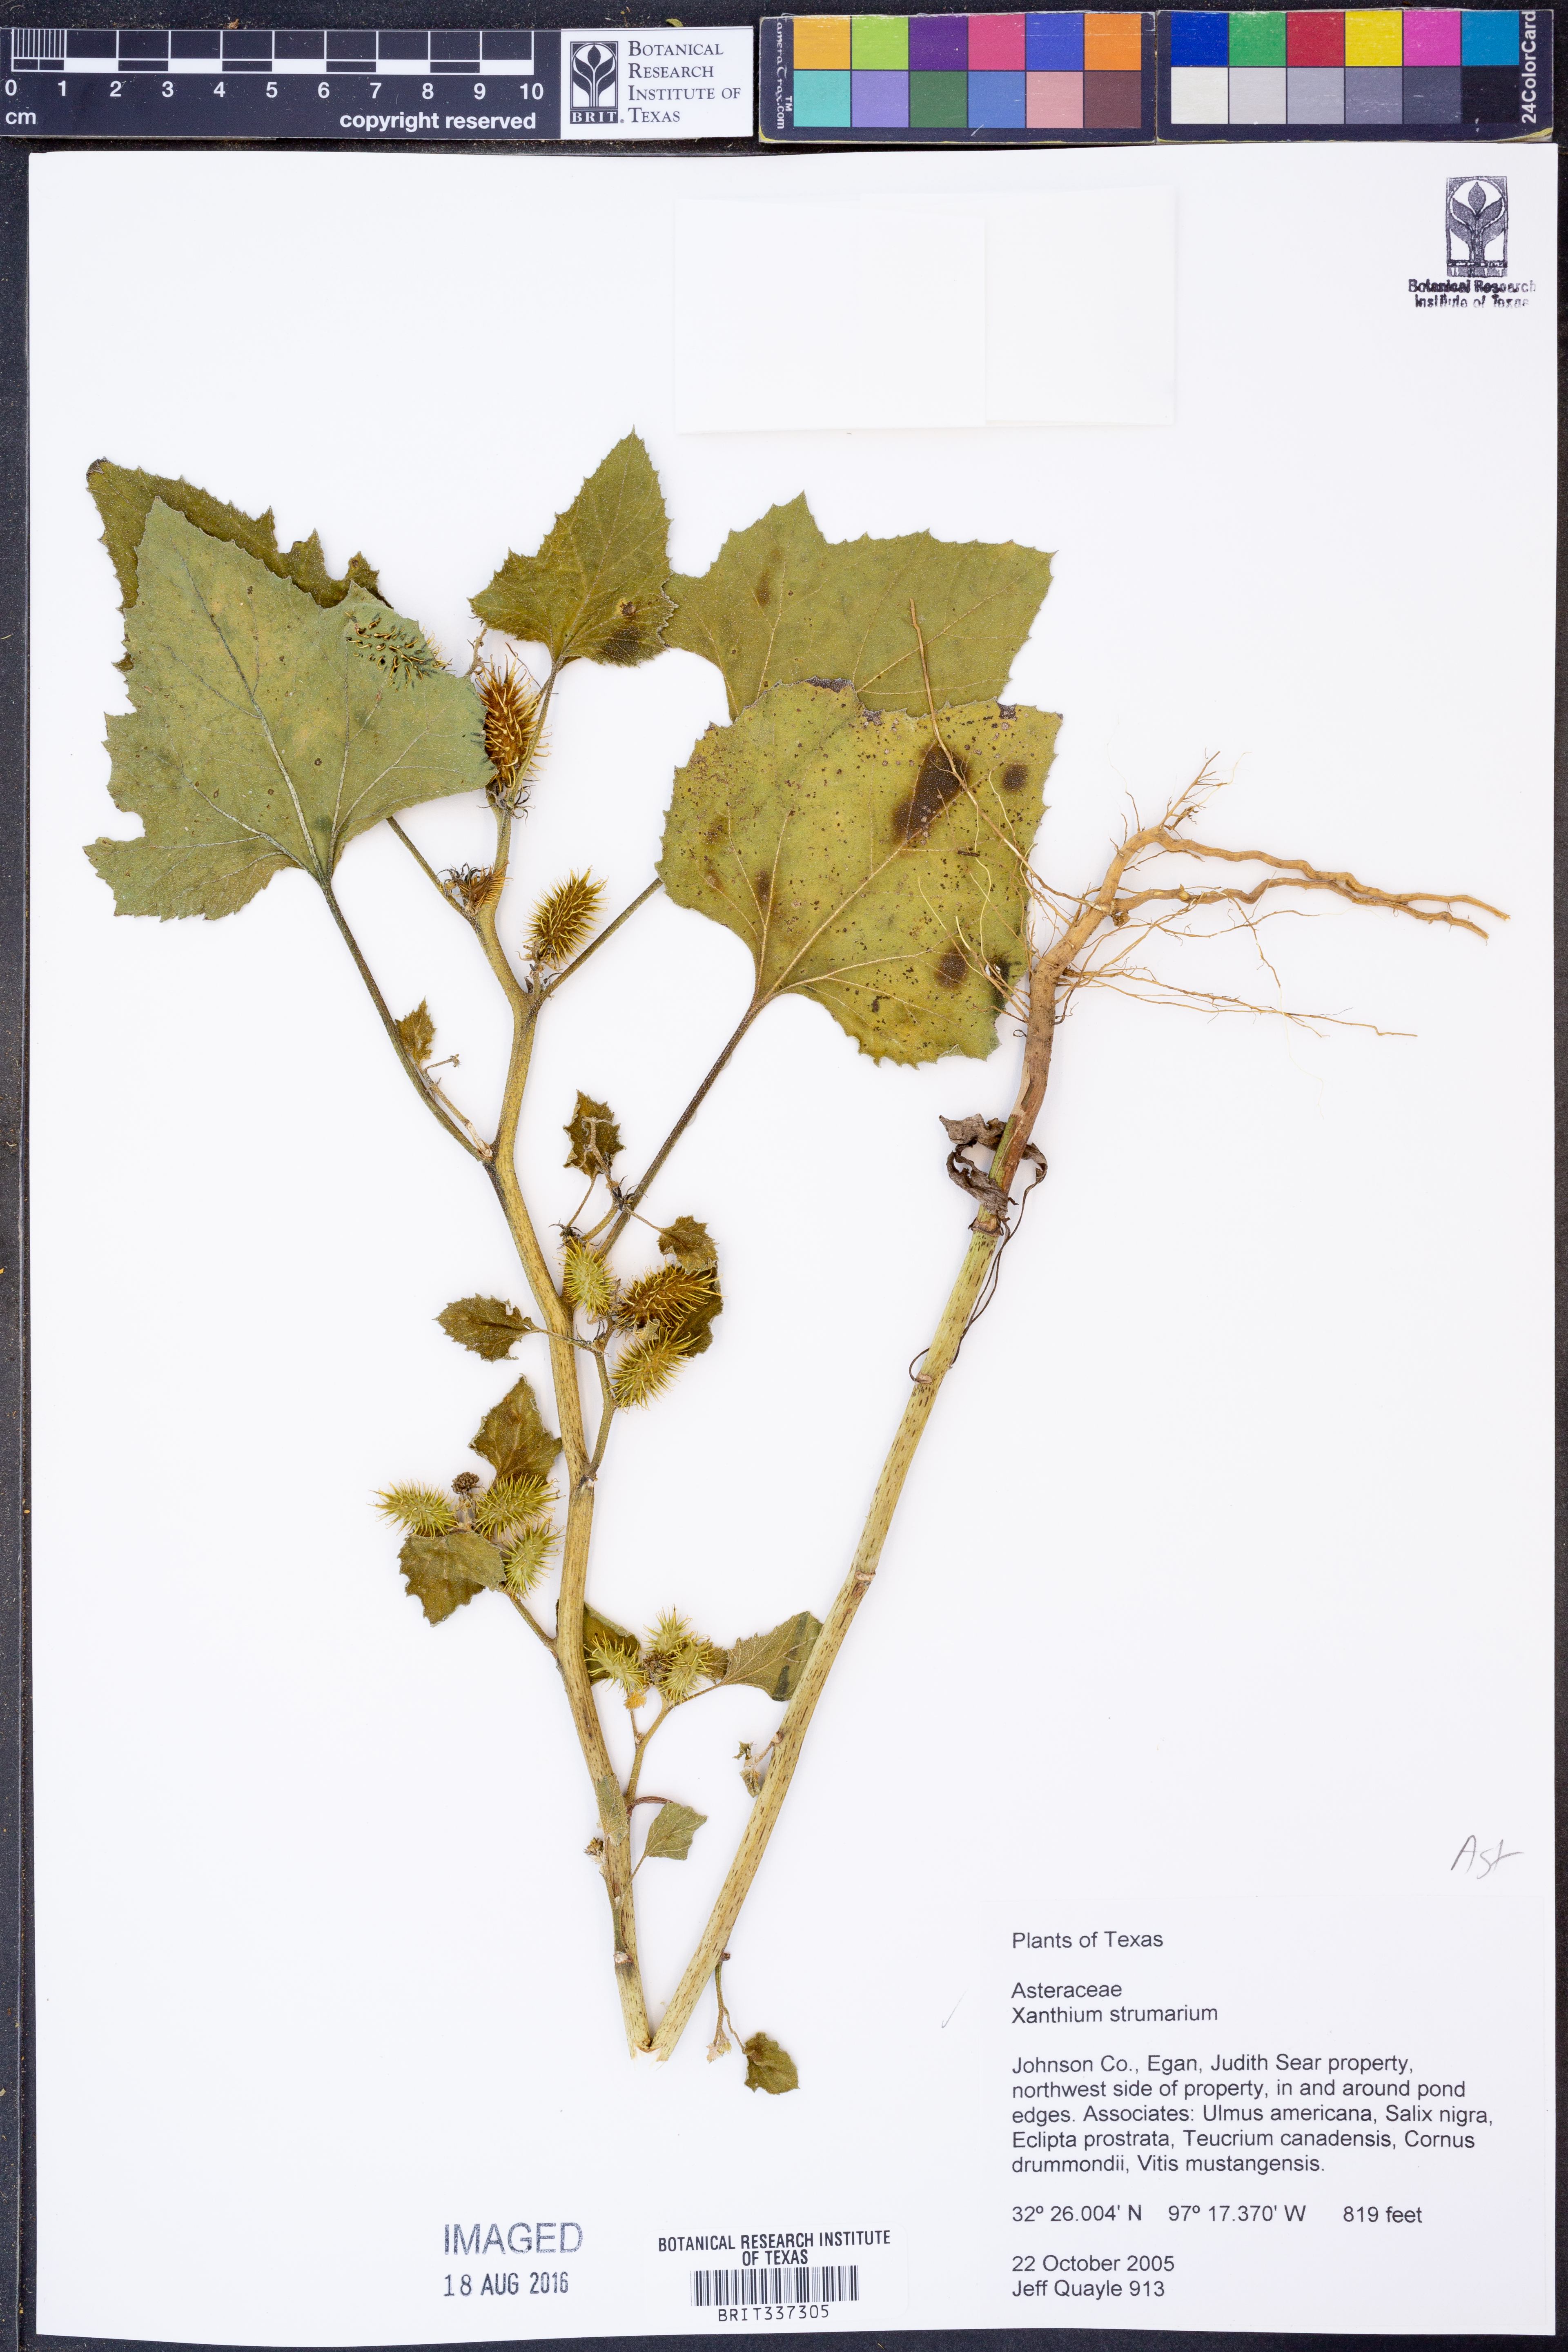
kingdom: Plantae
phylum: Tracheophyta
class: Magnoliopsida
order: Asterales
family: Asteraceae
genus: Xanthium
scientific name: Xanthium strumarium
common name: Rough cocklebur
